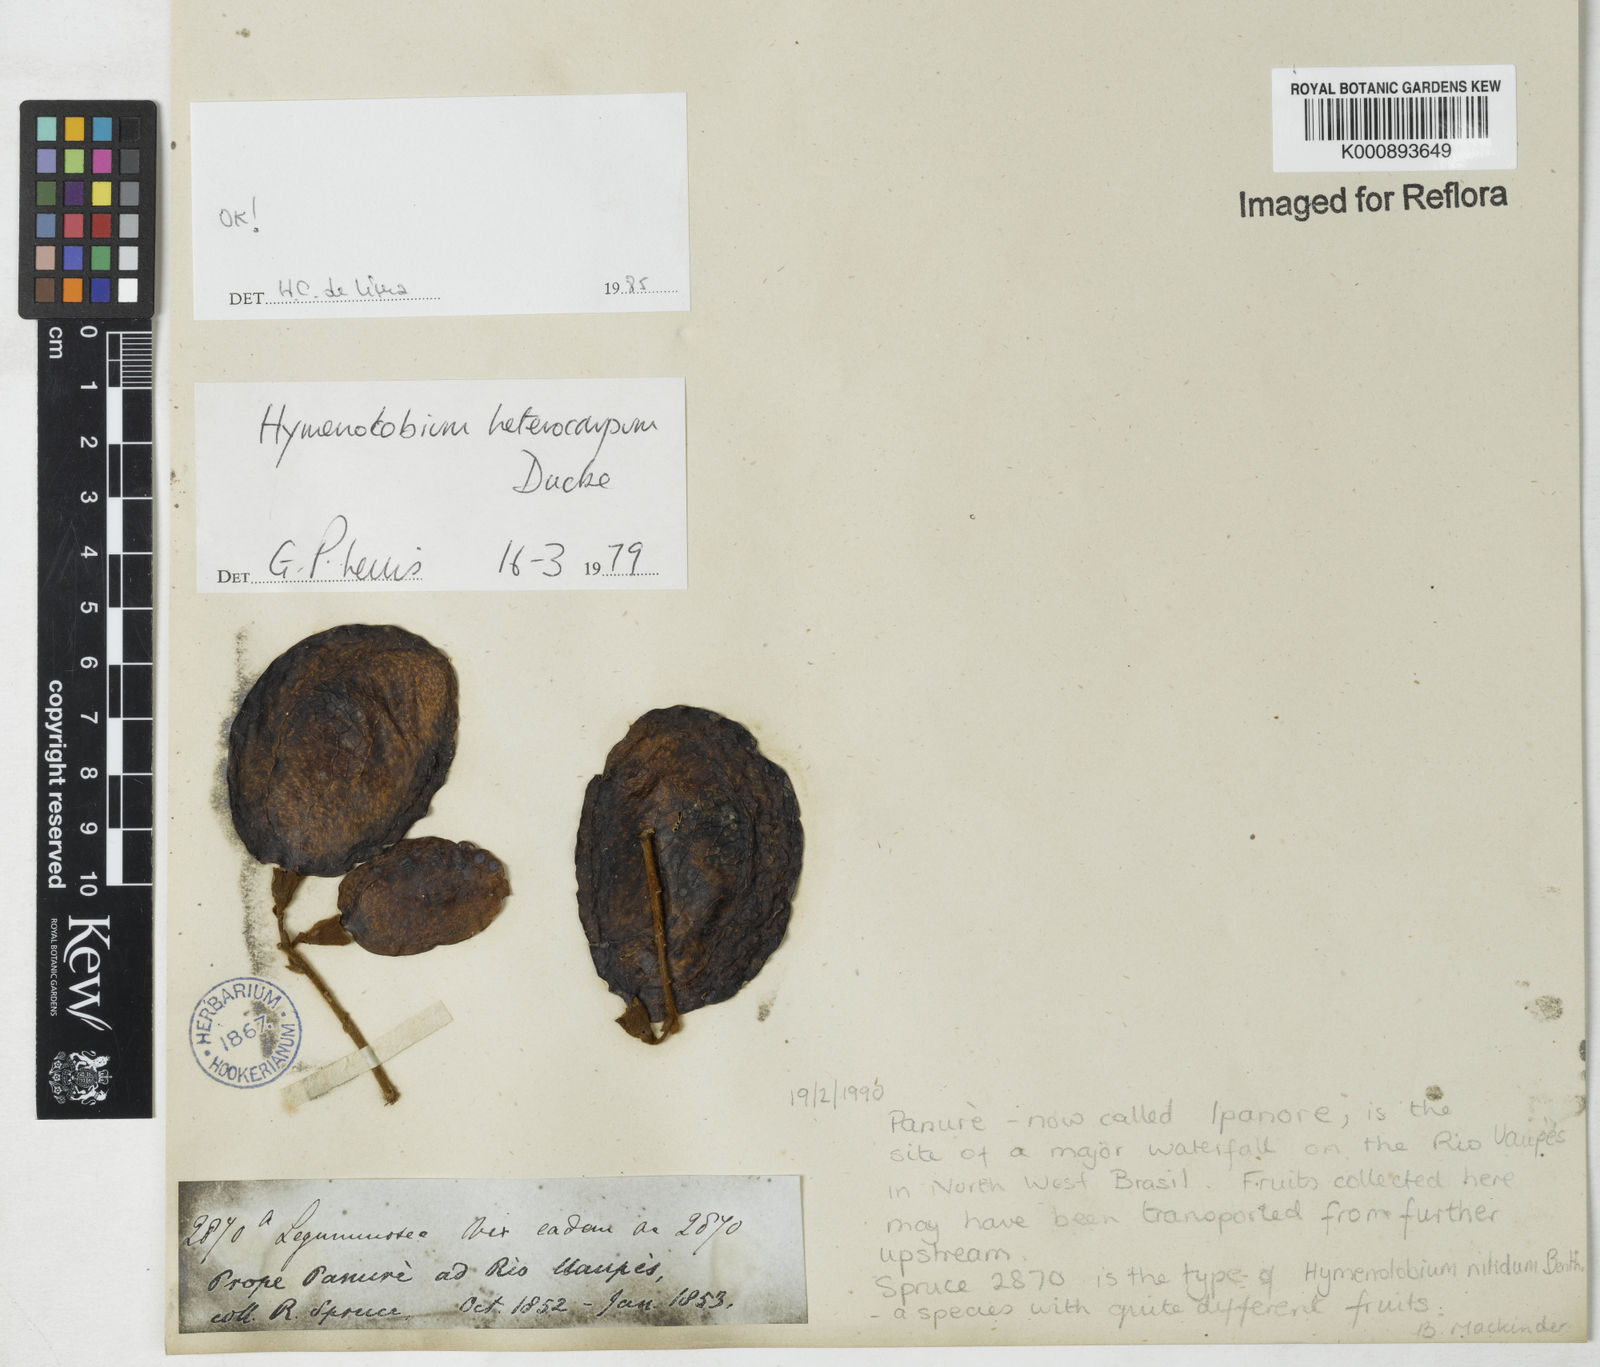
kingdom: Plantae
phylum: Tracheophyta
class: Magnoliopsida
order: Fabales
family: Fabaceae
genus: Hymenolobium
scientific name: Hymenolobium heterocarpum
